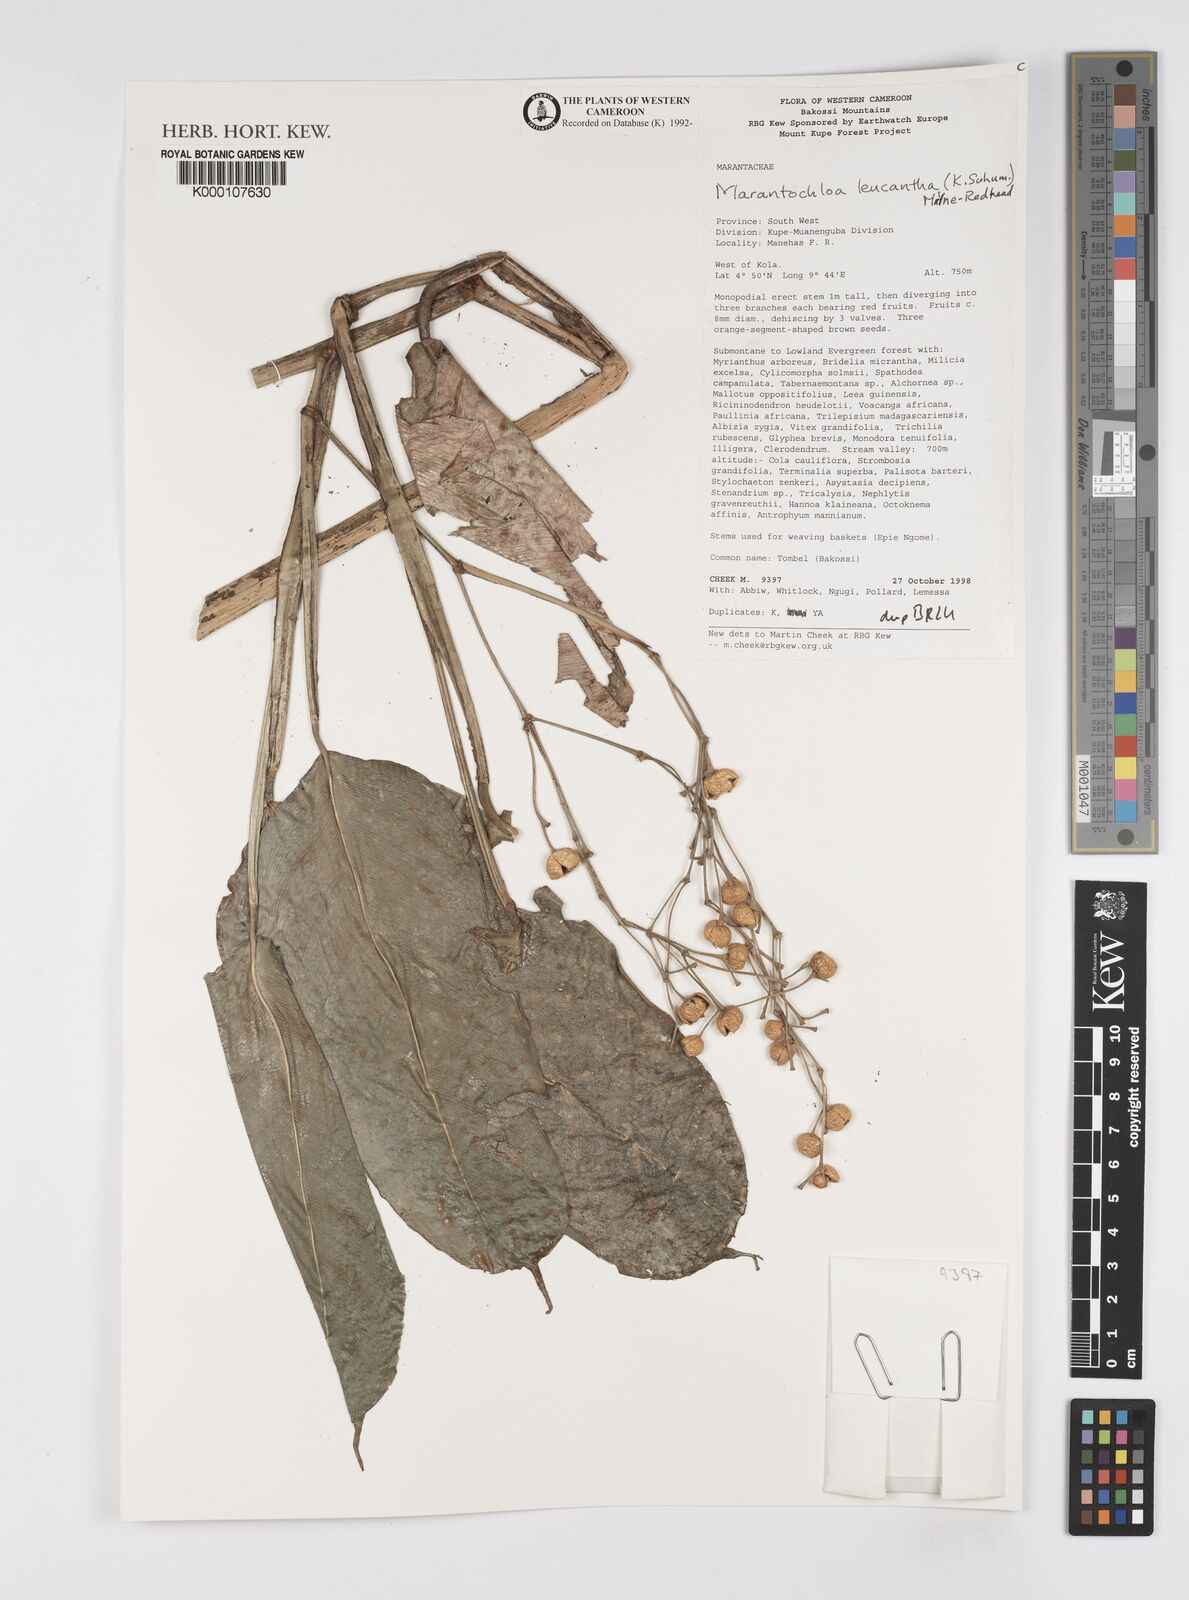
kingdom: Plantae
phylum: Tracheophyta
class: Liliopsida
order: Zingiberales
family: Marantaceae
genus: Marantochloa
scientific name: Marantochloa leucantha
